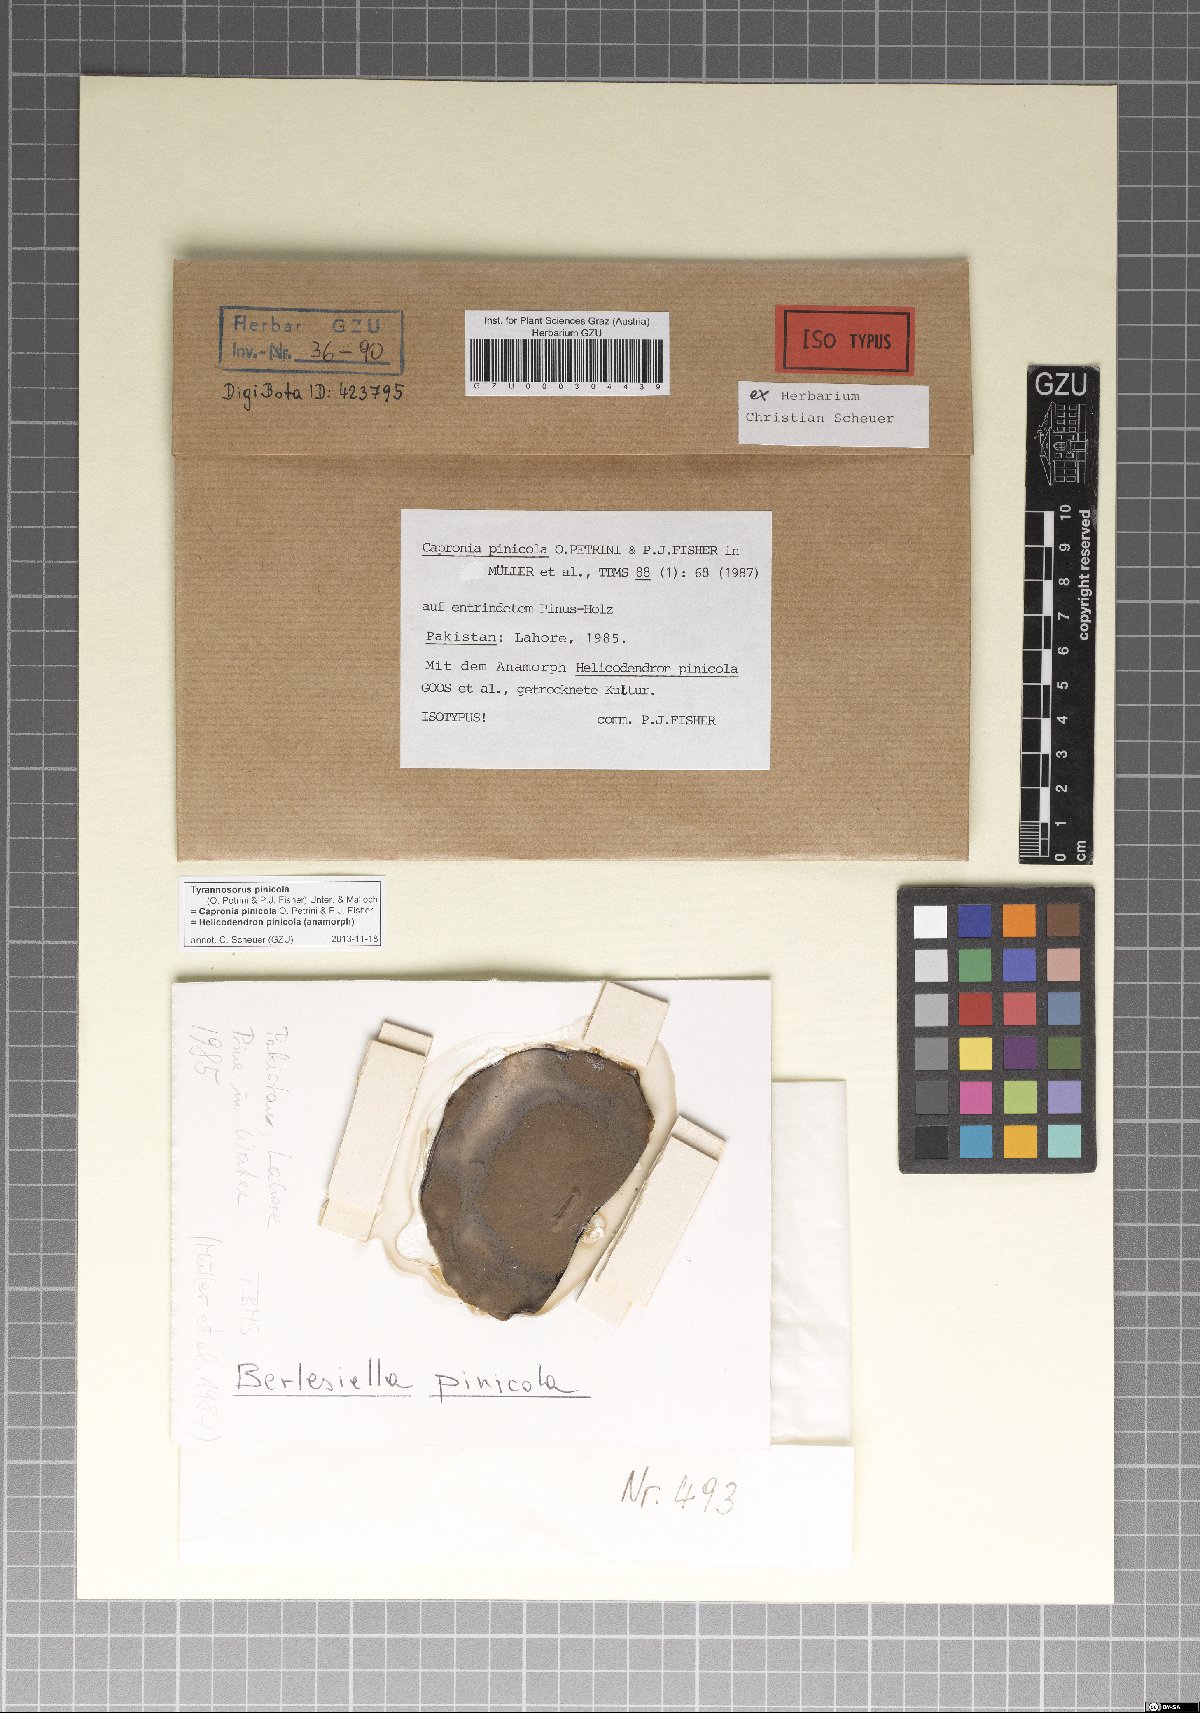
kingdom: Fungi
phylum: Ascomycota
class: Dothideomycetes
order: Venturiales
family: Venturiaceae
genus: Tyrannosorus
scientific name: Tyrannosorus pinicola
